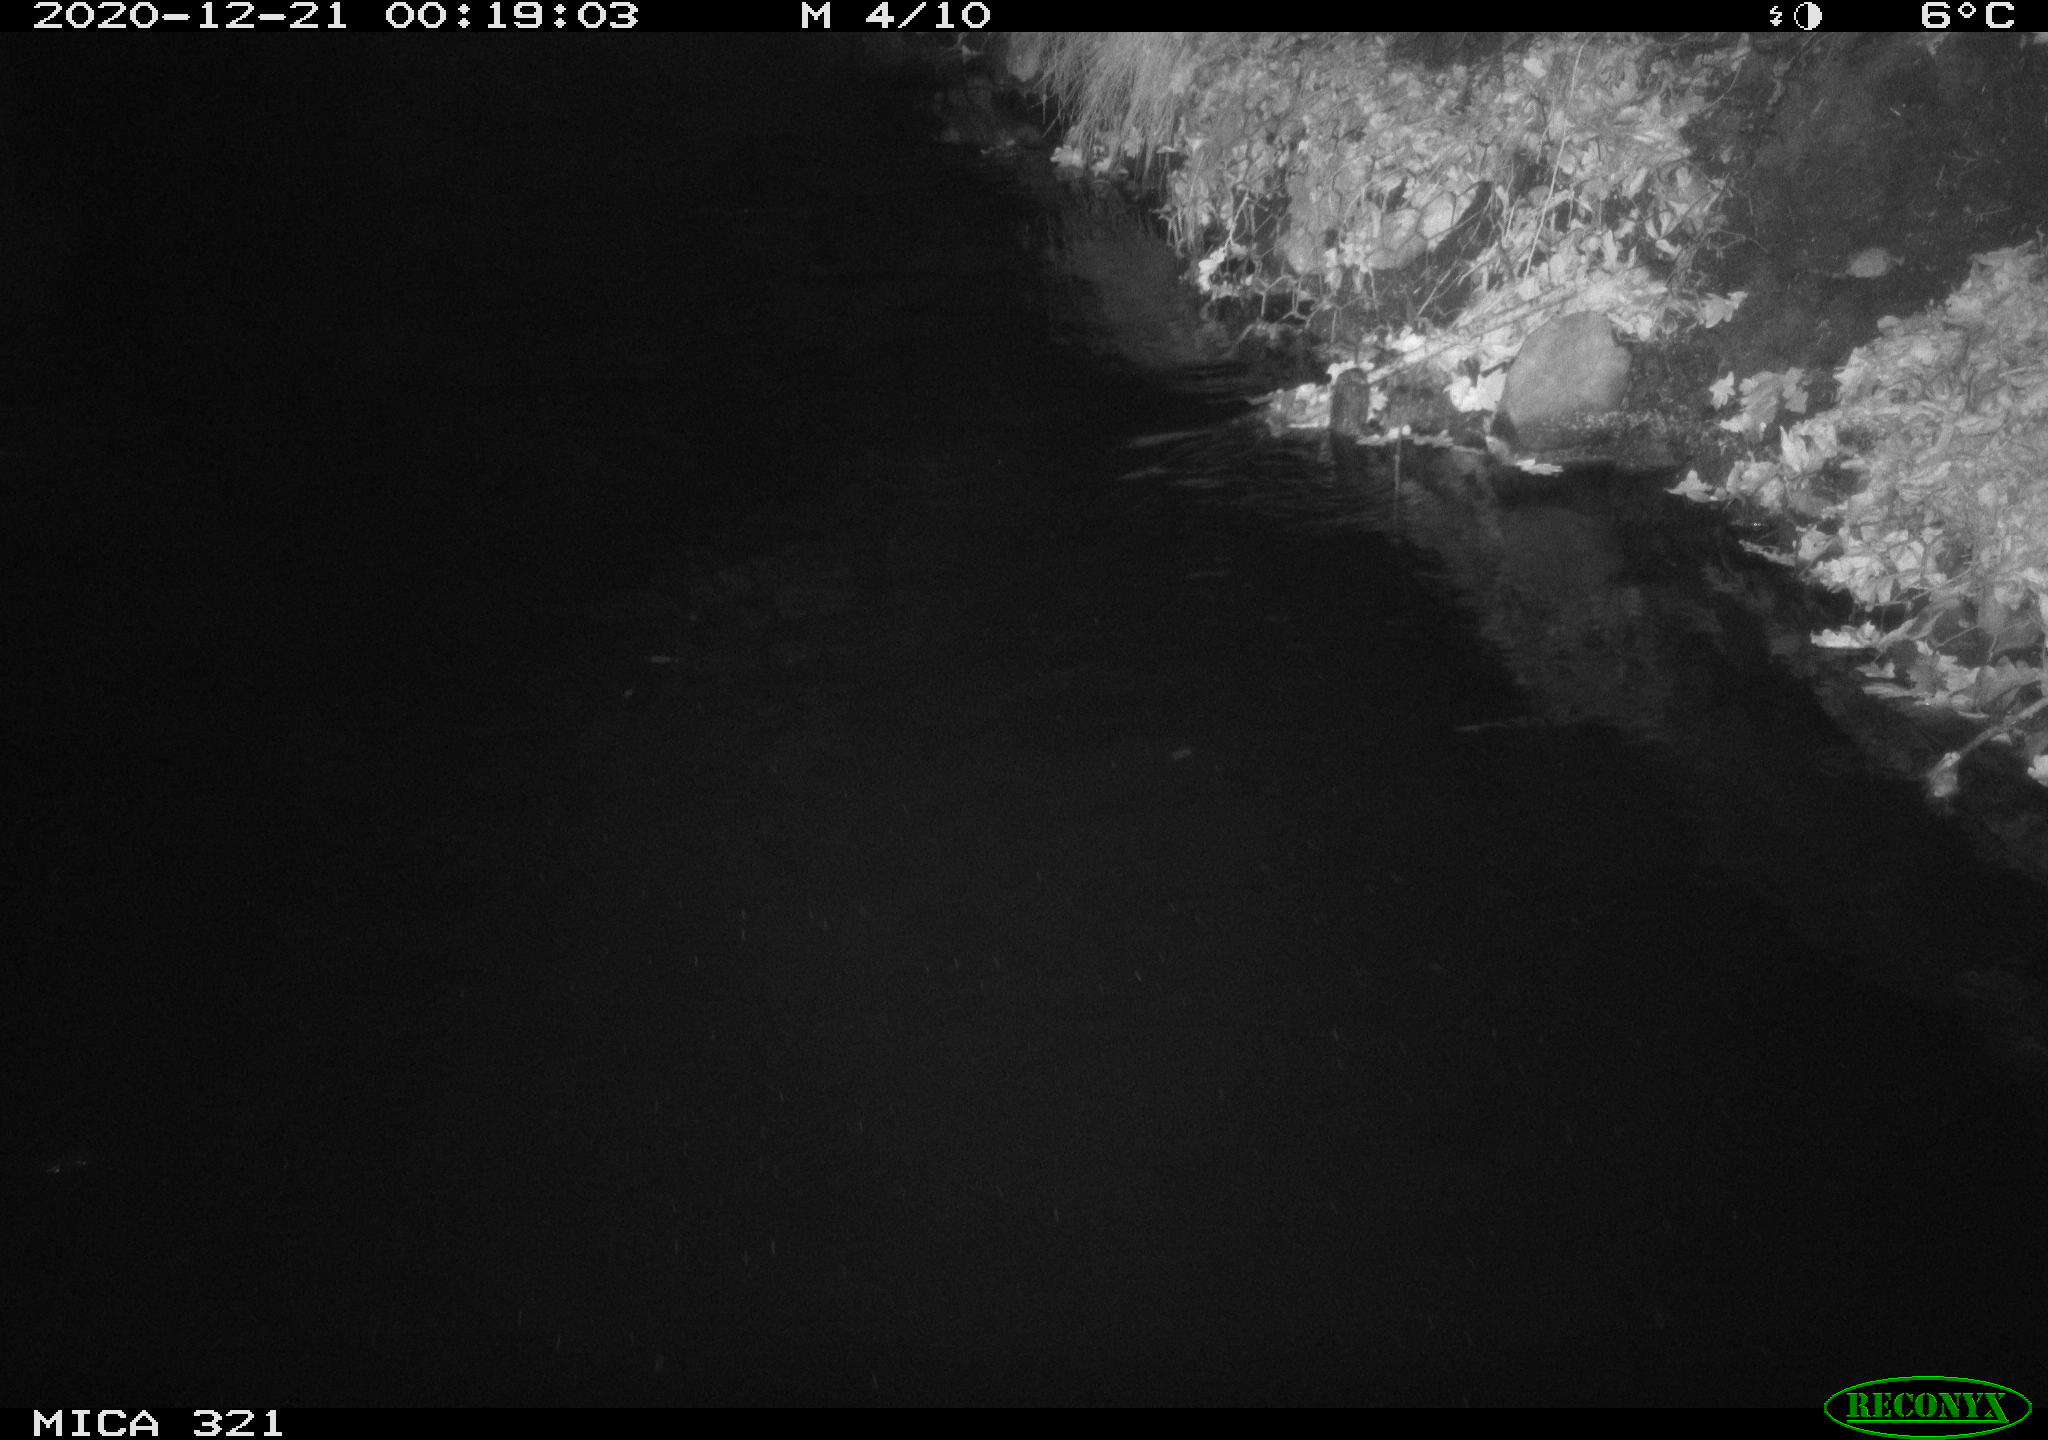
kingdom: Animalia
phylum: Chordata
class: Aves
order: Anseriformes
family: Anatidae
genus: Anas
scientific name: Anas platyrhynchos
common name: Mallard
